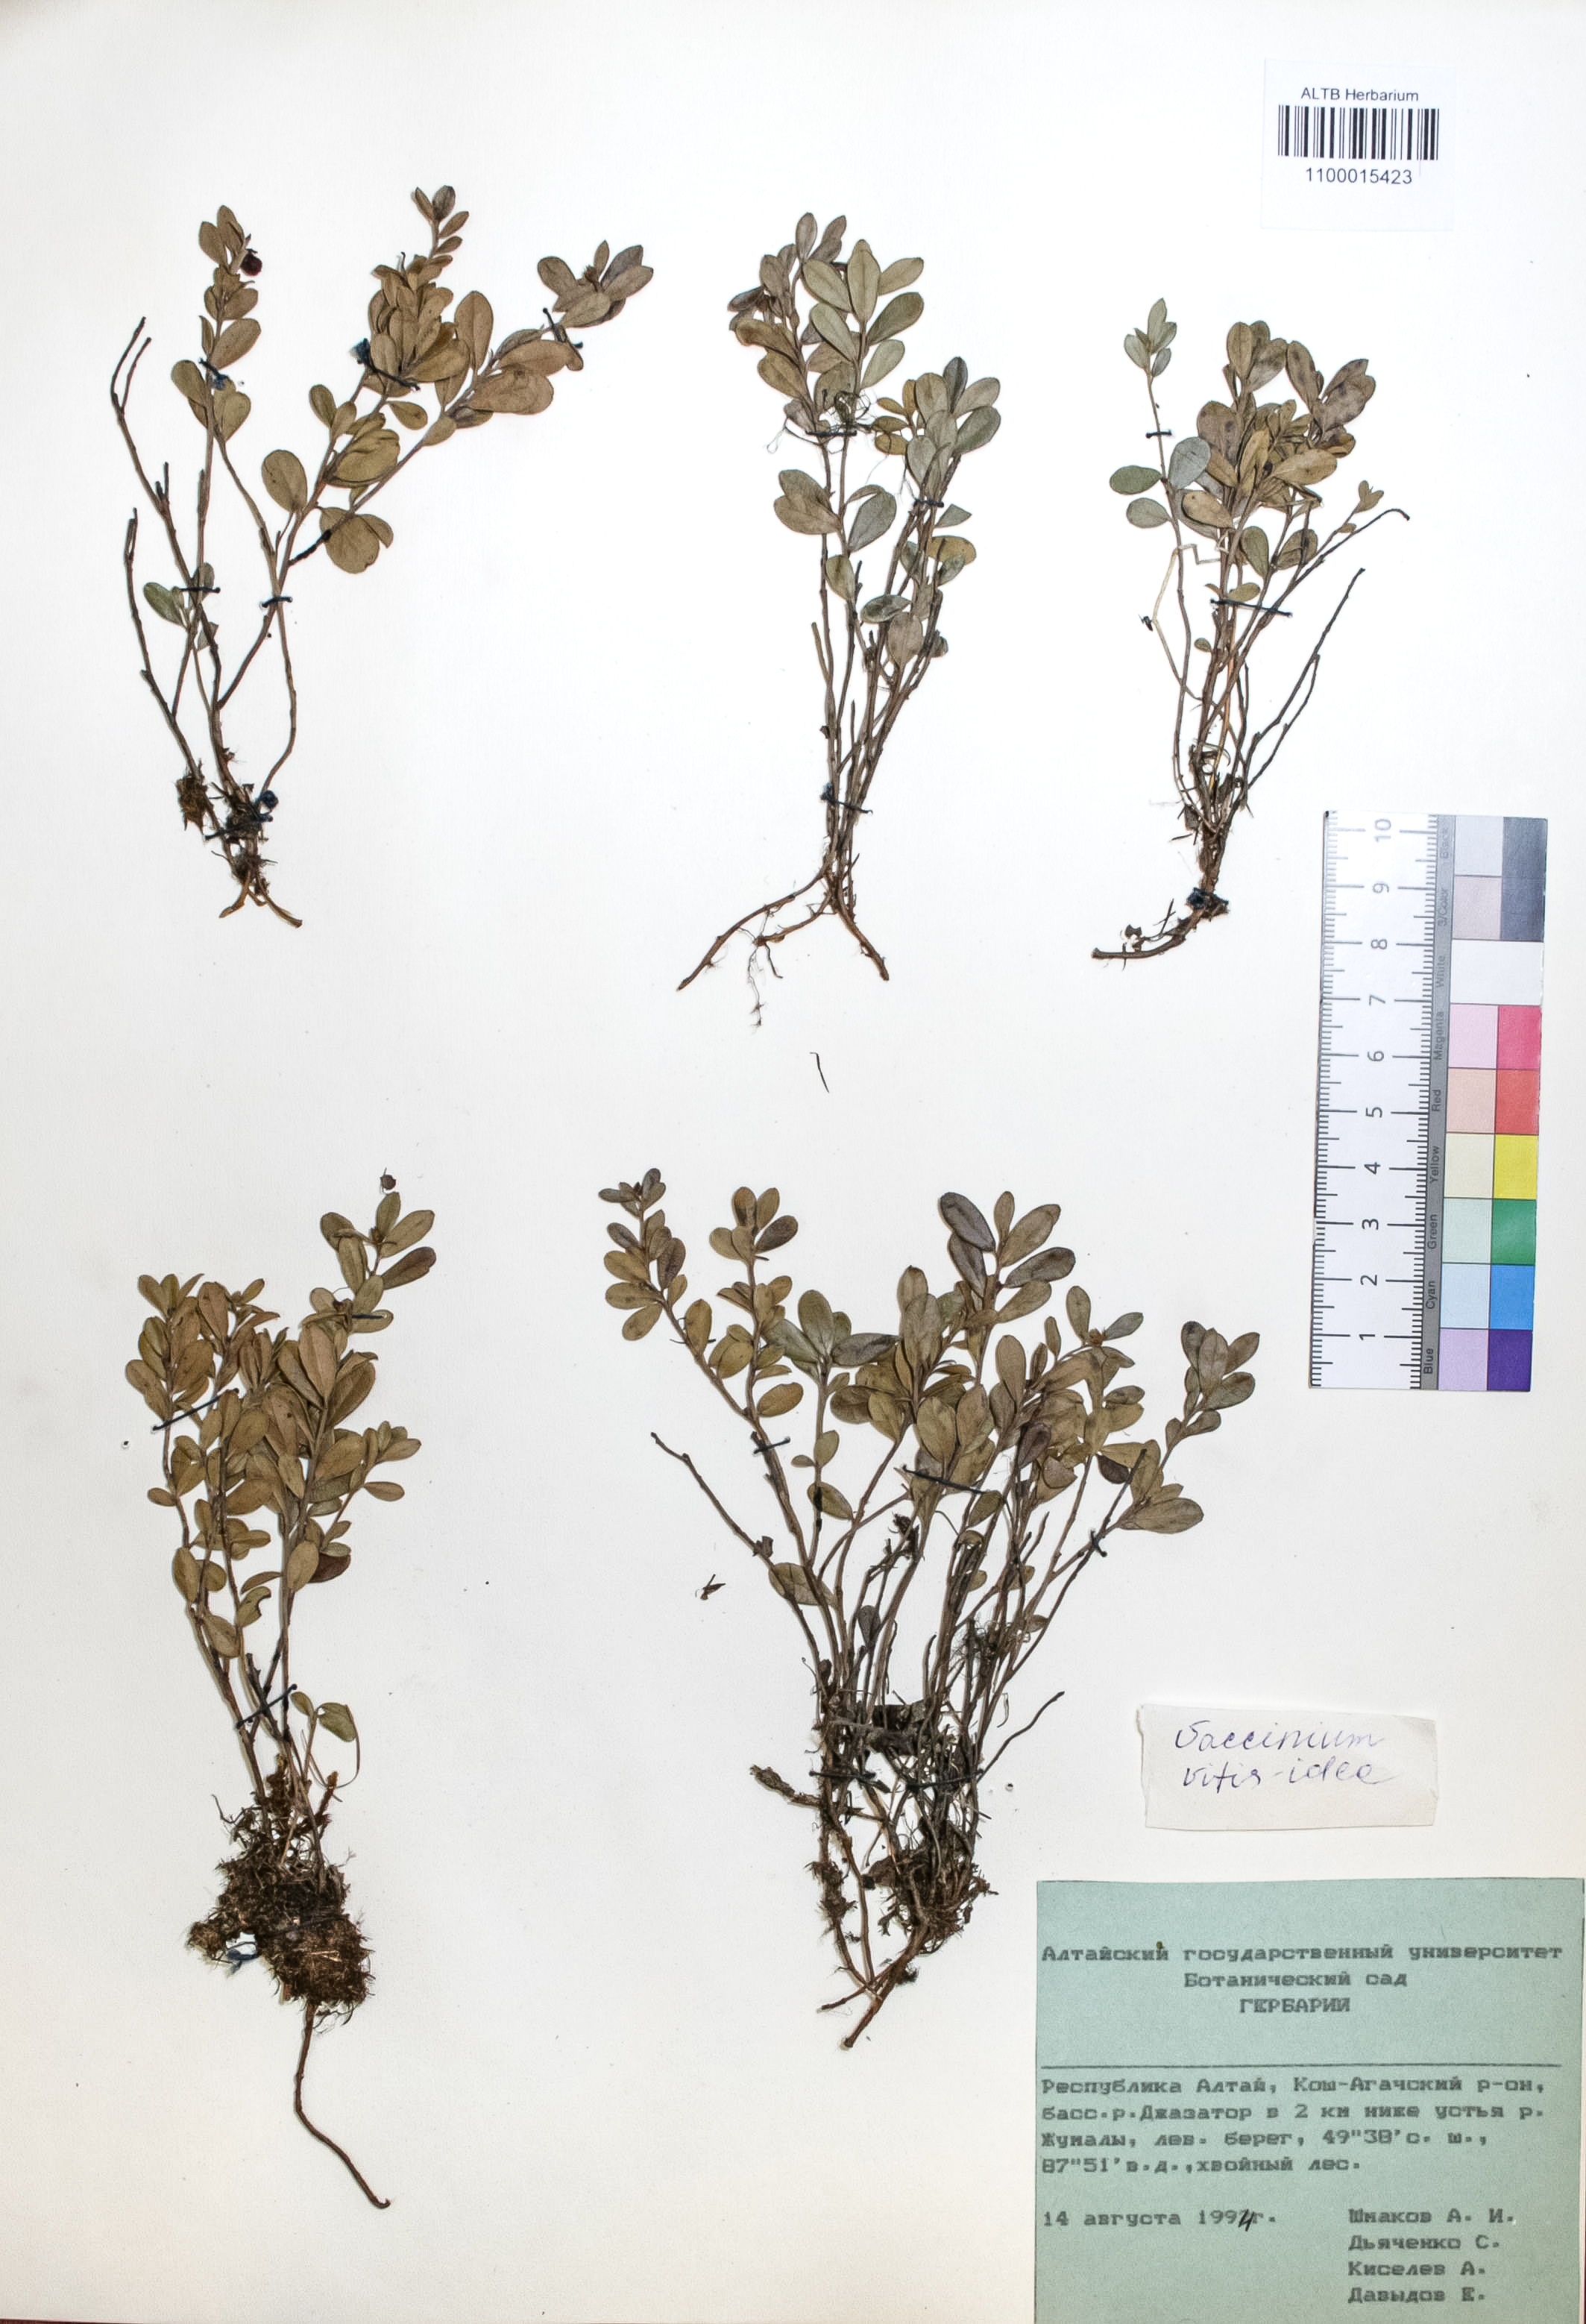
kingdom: Plantae
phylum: Tracheophyta
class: Magnoliopsida
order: Ericales
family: Ericaceae
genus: Vaccinium
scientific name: Vaccinium vitis-idaea
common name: Cowberry
